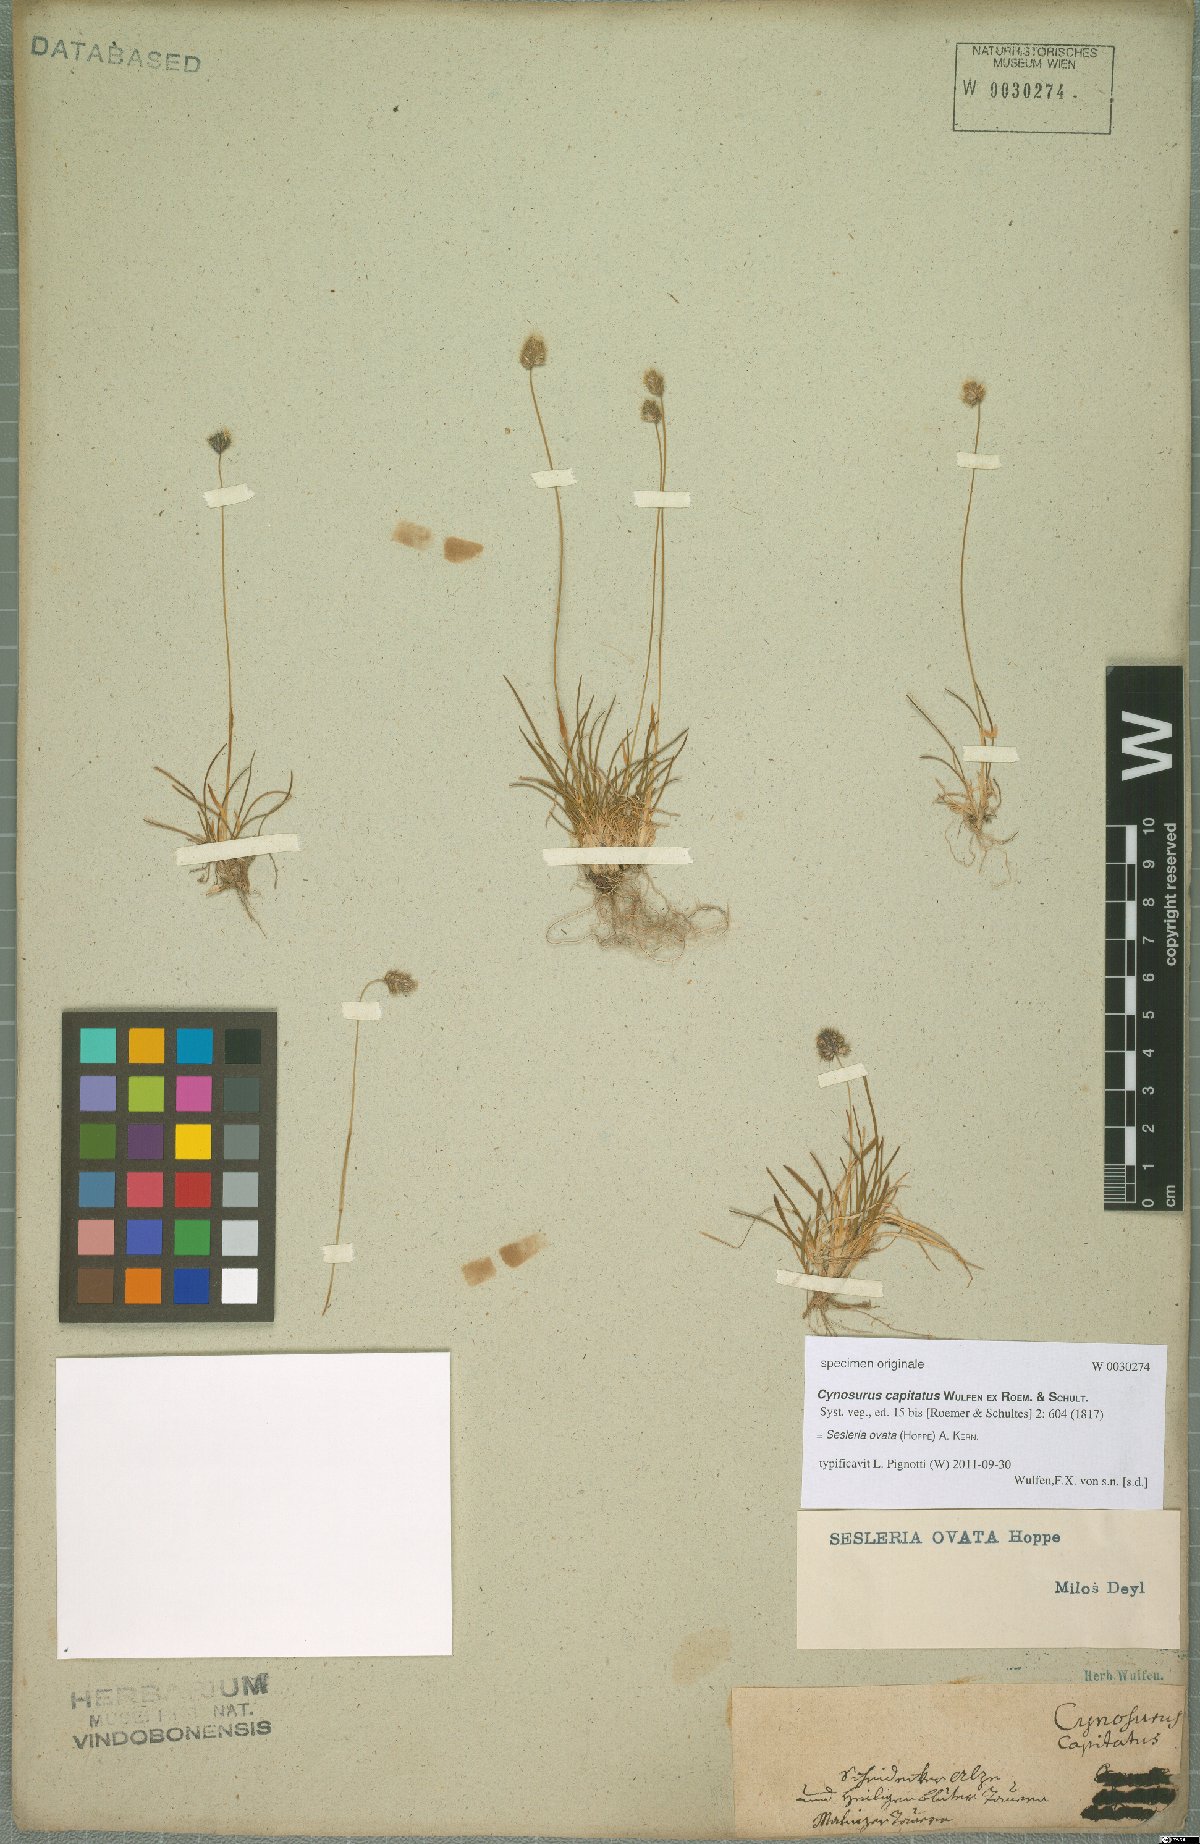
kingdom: Plantae
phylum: Tracheophyta
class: Liliopsida
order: Poales
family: Poaceae
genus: Psilathera
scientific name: Psilathera ovata
